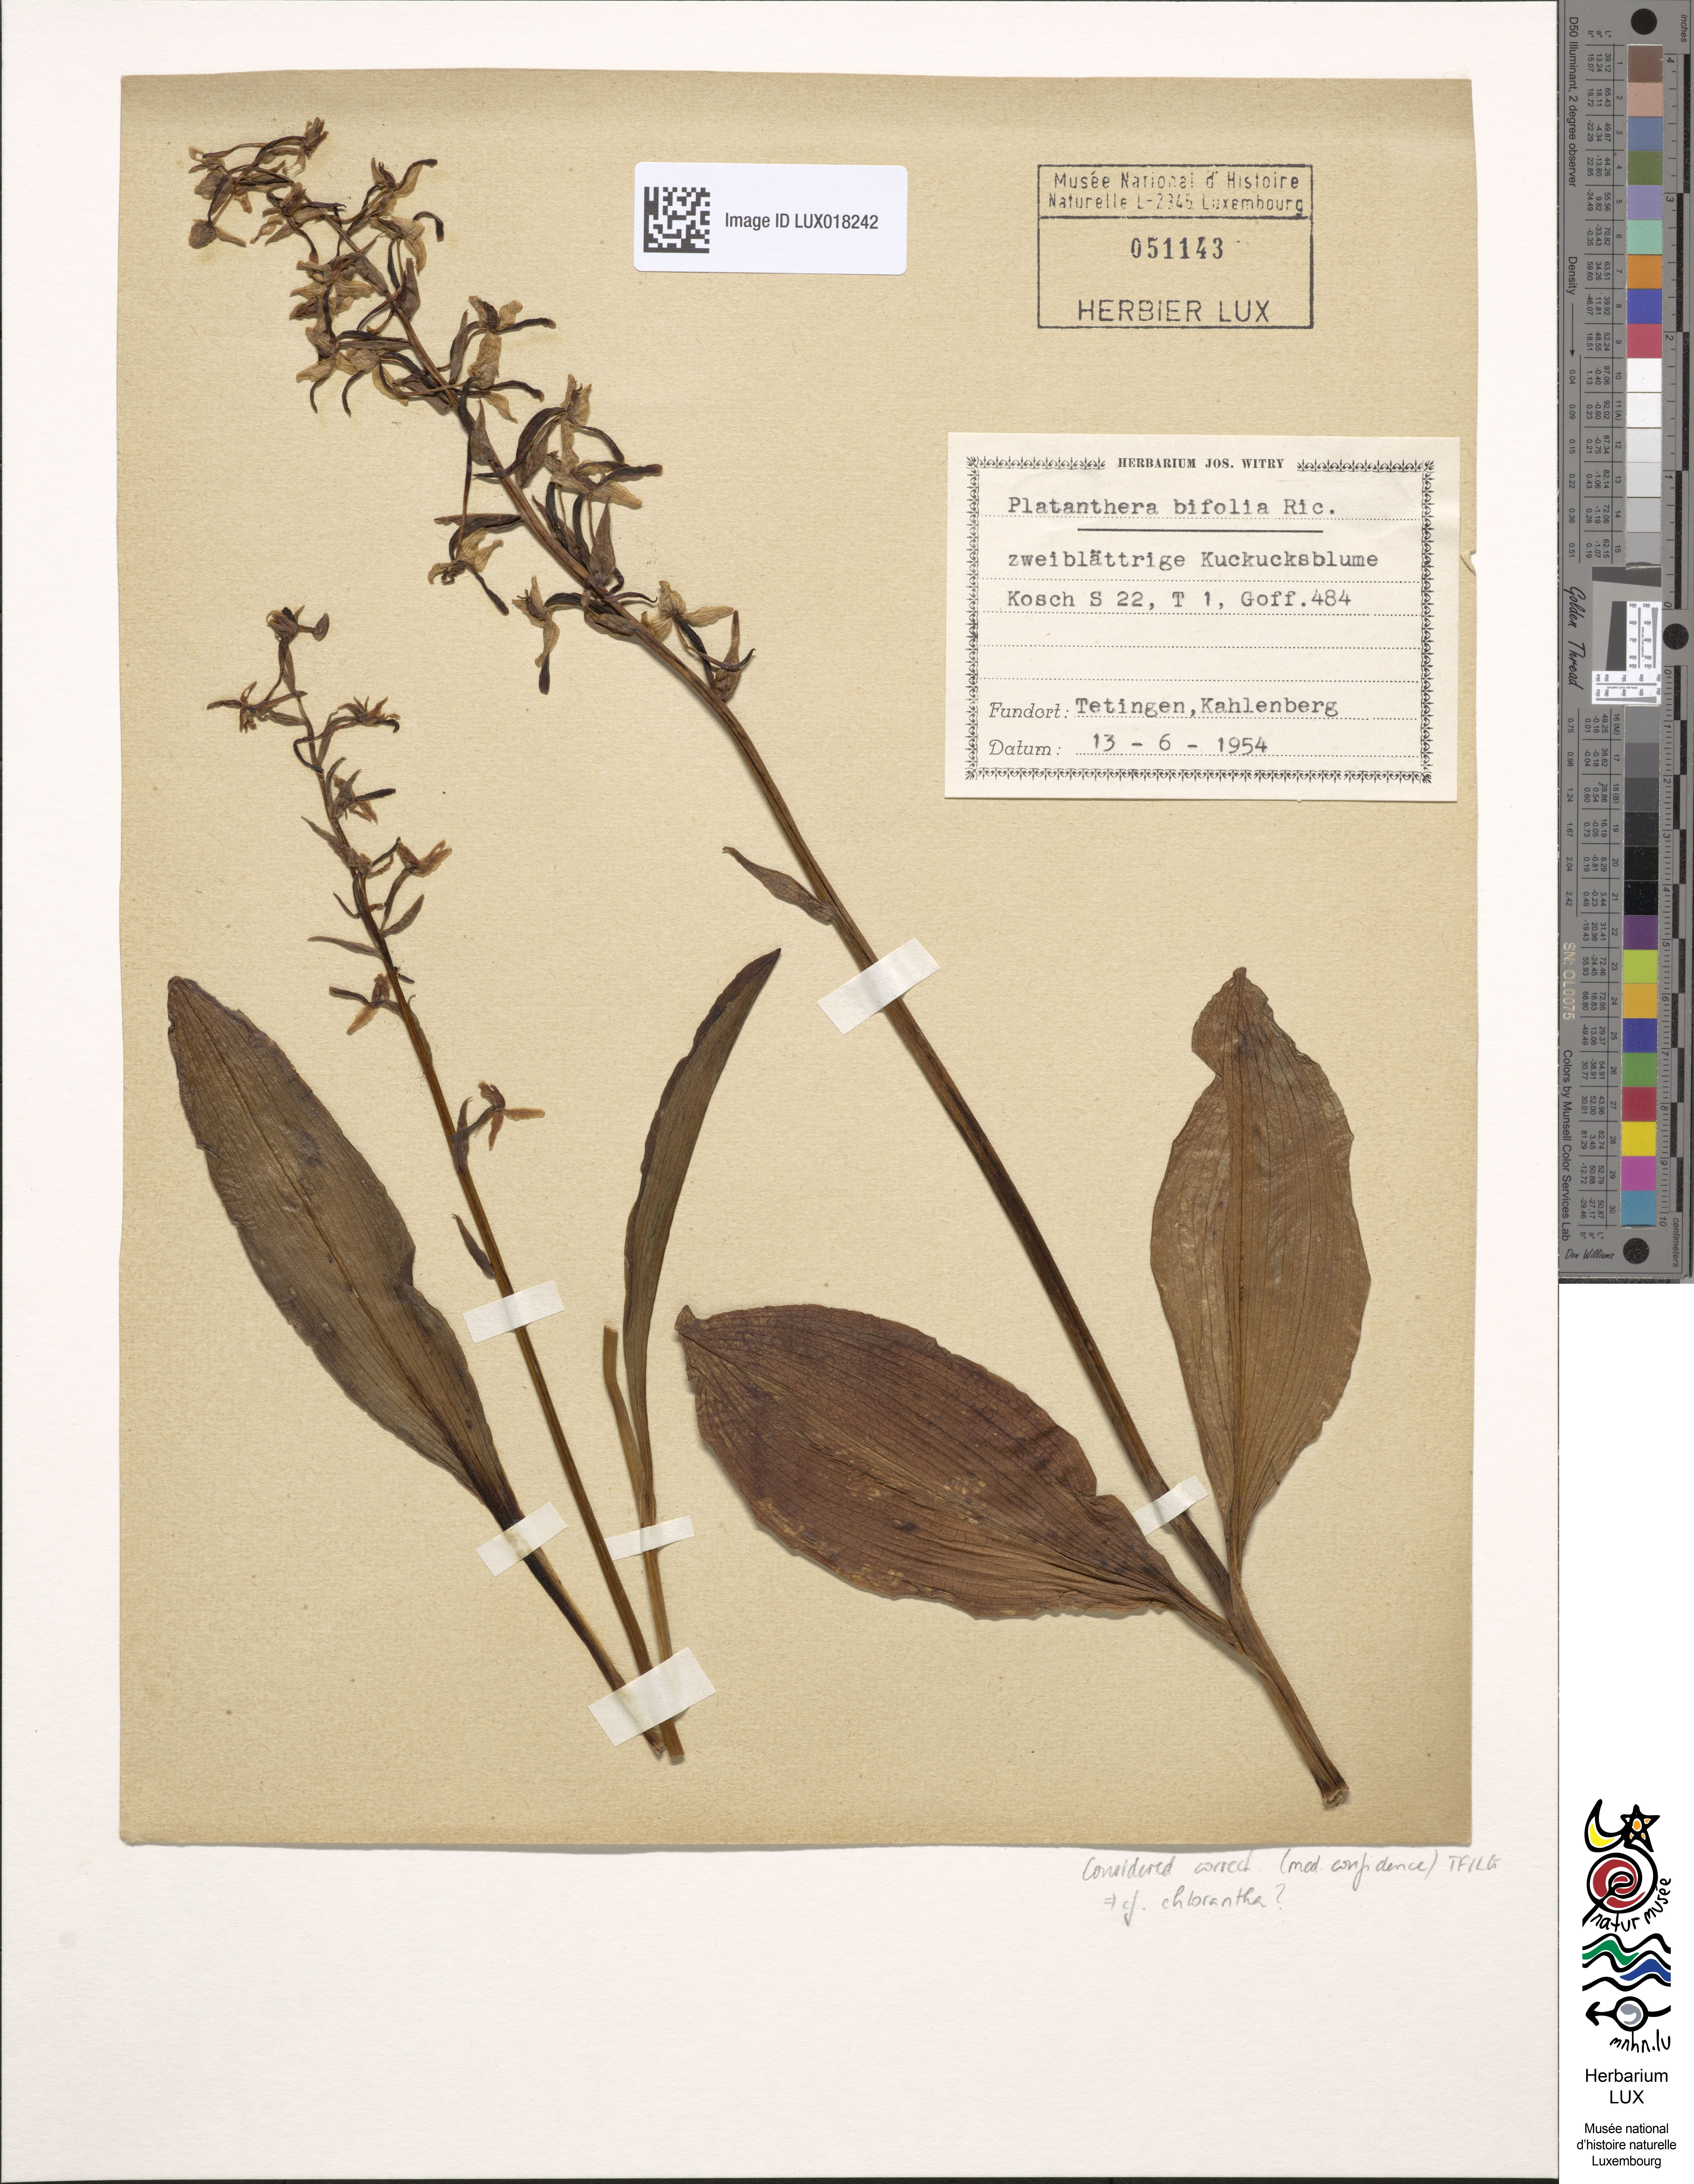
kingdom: Plantae
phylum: Tracheophyta
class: Liliopsida
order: Asparagales
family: Orchidaceae
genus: Platanthera
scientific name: Platanthera bifolia
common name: Lesser butterfly-orchid
